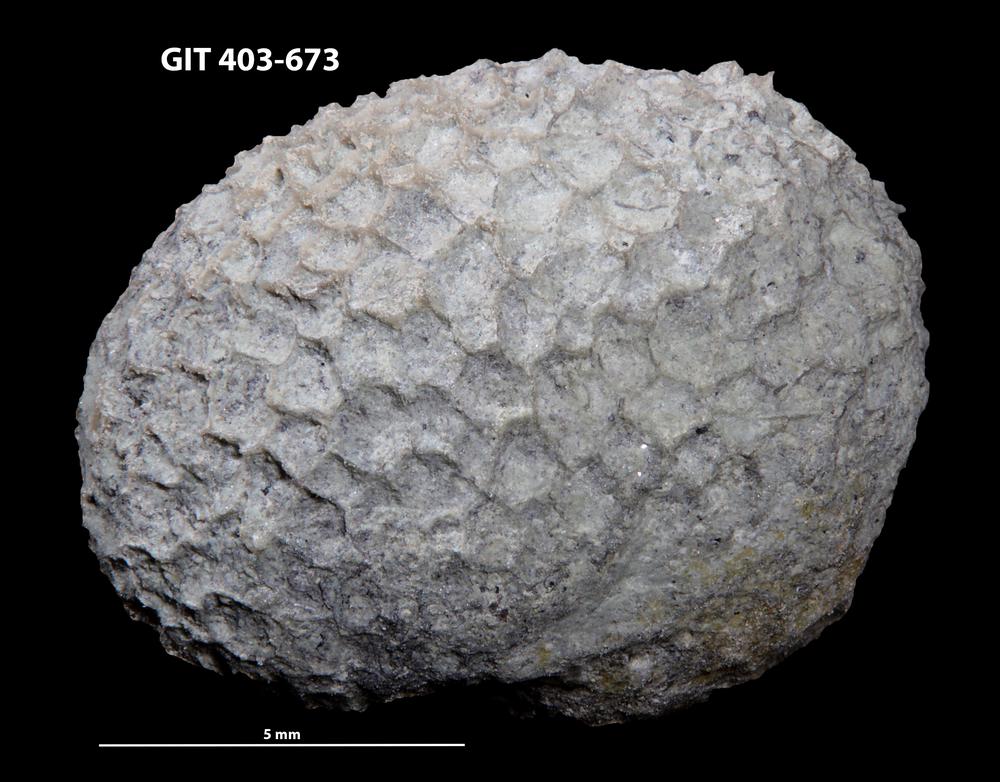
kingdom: Animalia
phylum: Cnidaria
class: Anthozoa
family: Favositidae
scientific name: Favositidae
